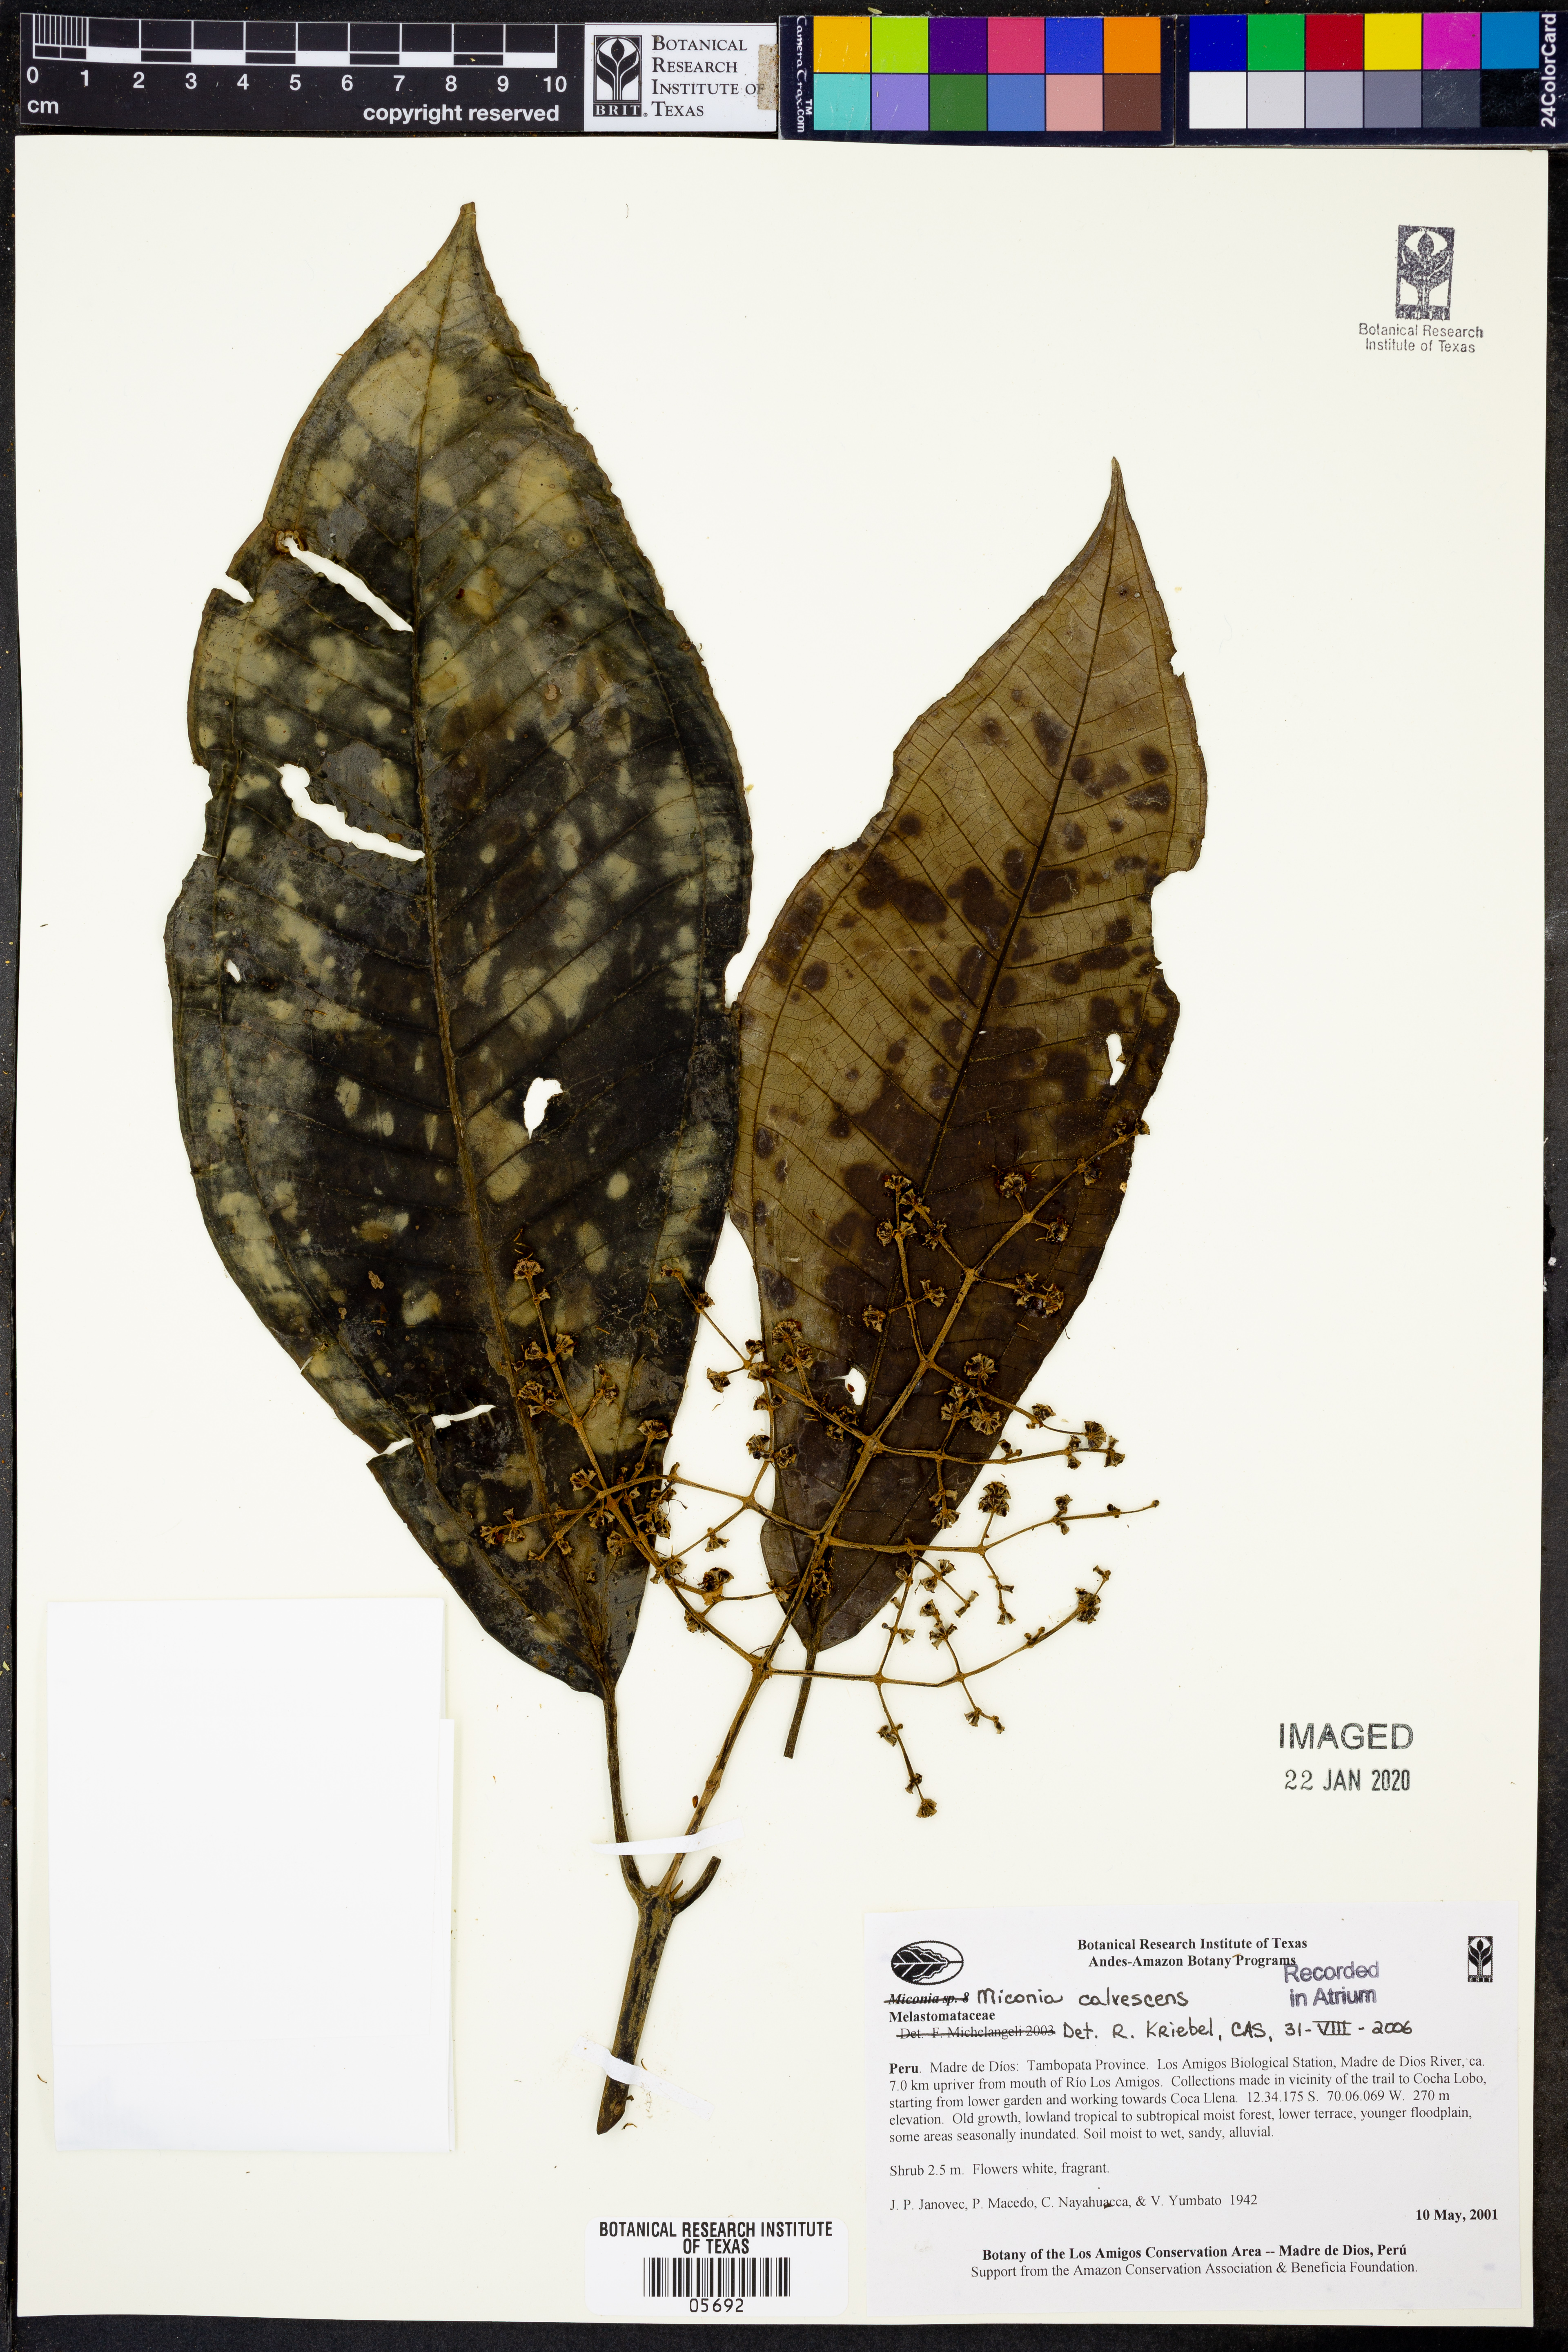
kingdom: Plantae
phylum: Tracheophyta
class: Magnoliopsida
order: Myrtales
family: Melastomataceae
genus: Miconia
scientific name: Miconia calvescens
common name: Purple plague
